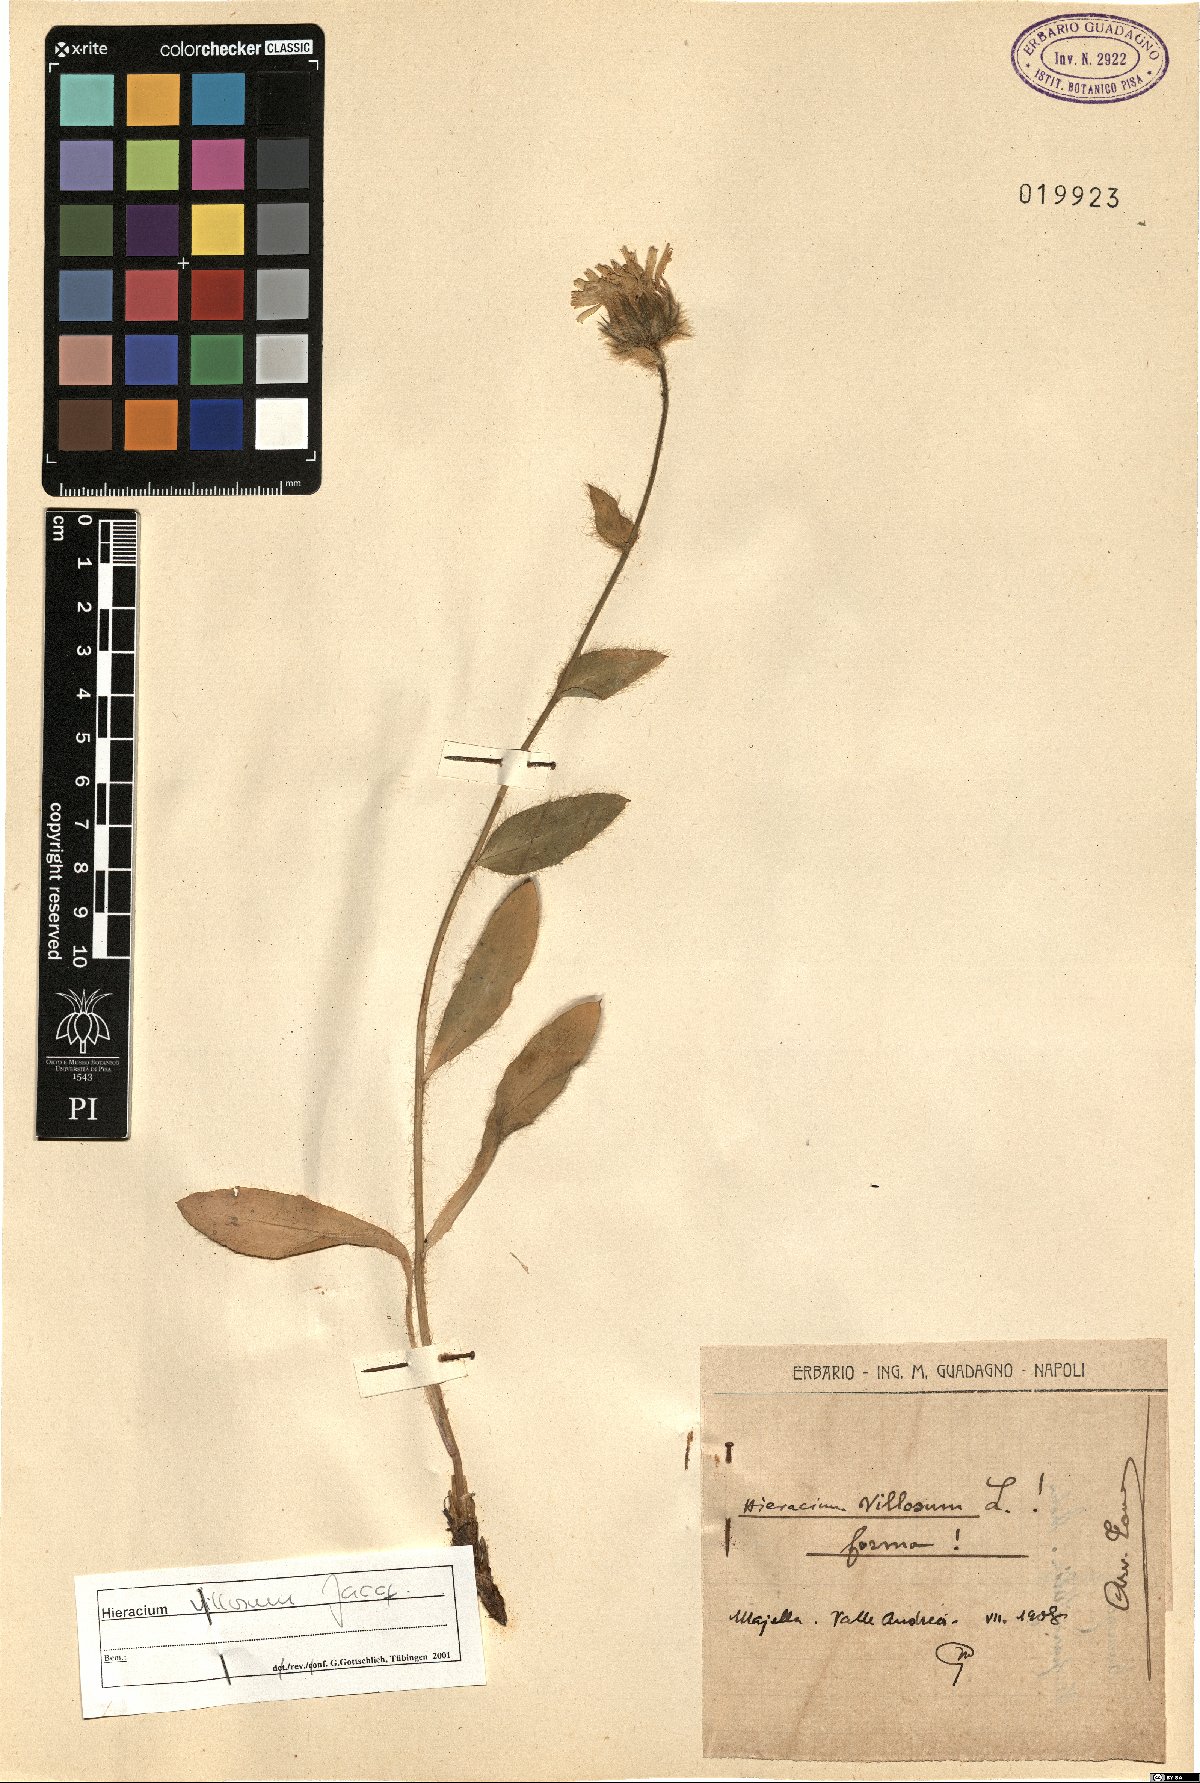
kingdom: Plantae
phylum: Tracheophyta
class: Magnoliopsida
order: Asterales
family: Asteraceae
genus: Hieracium
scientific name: Hieracium villosum
